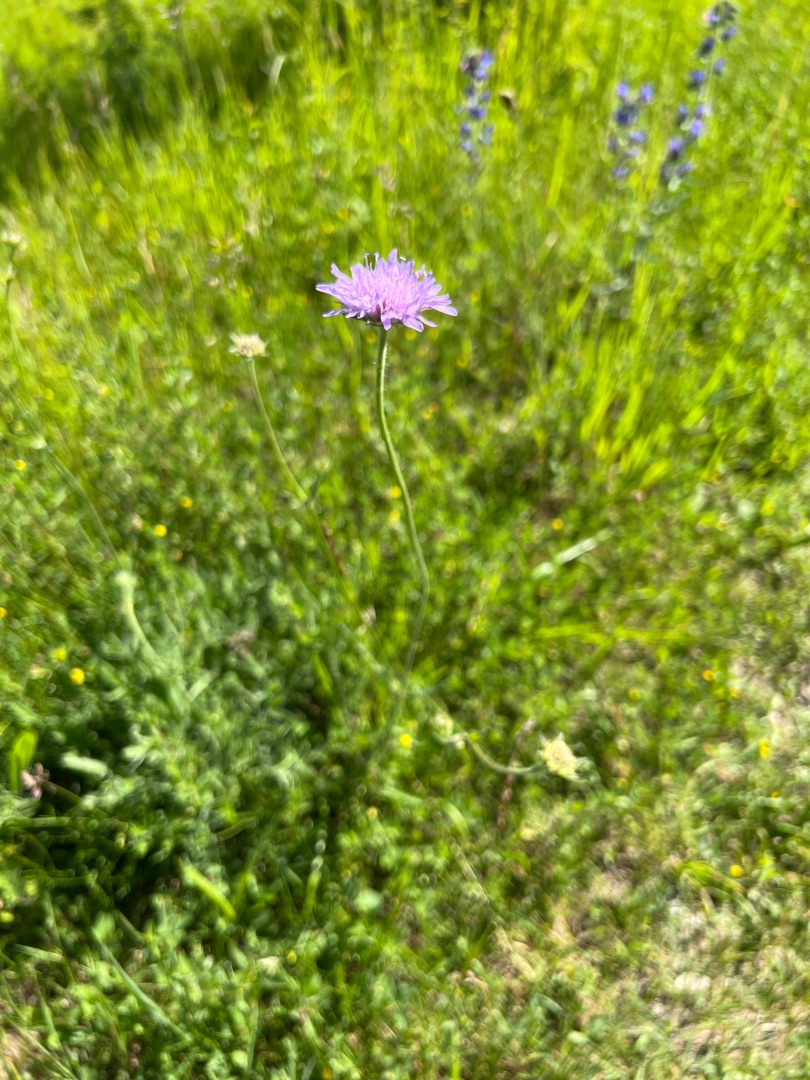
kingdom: Plantae
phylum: Tracheophyta
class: Magnoliopsida
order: Dipsacales
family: Caprifoliaceae
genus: Knautia
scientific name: Knautia arvensis
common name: Blåhat
